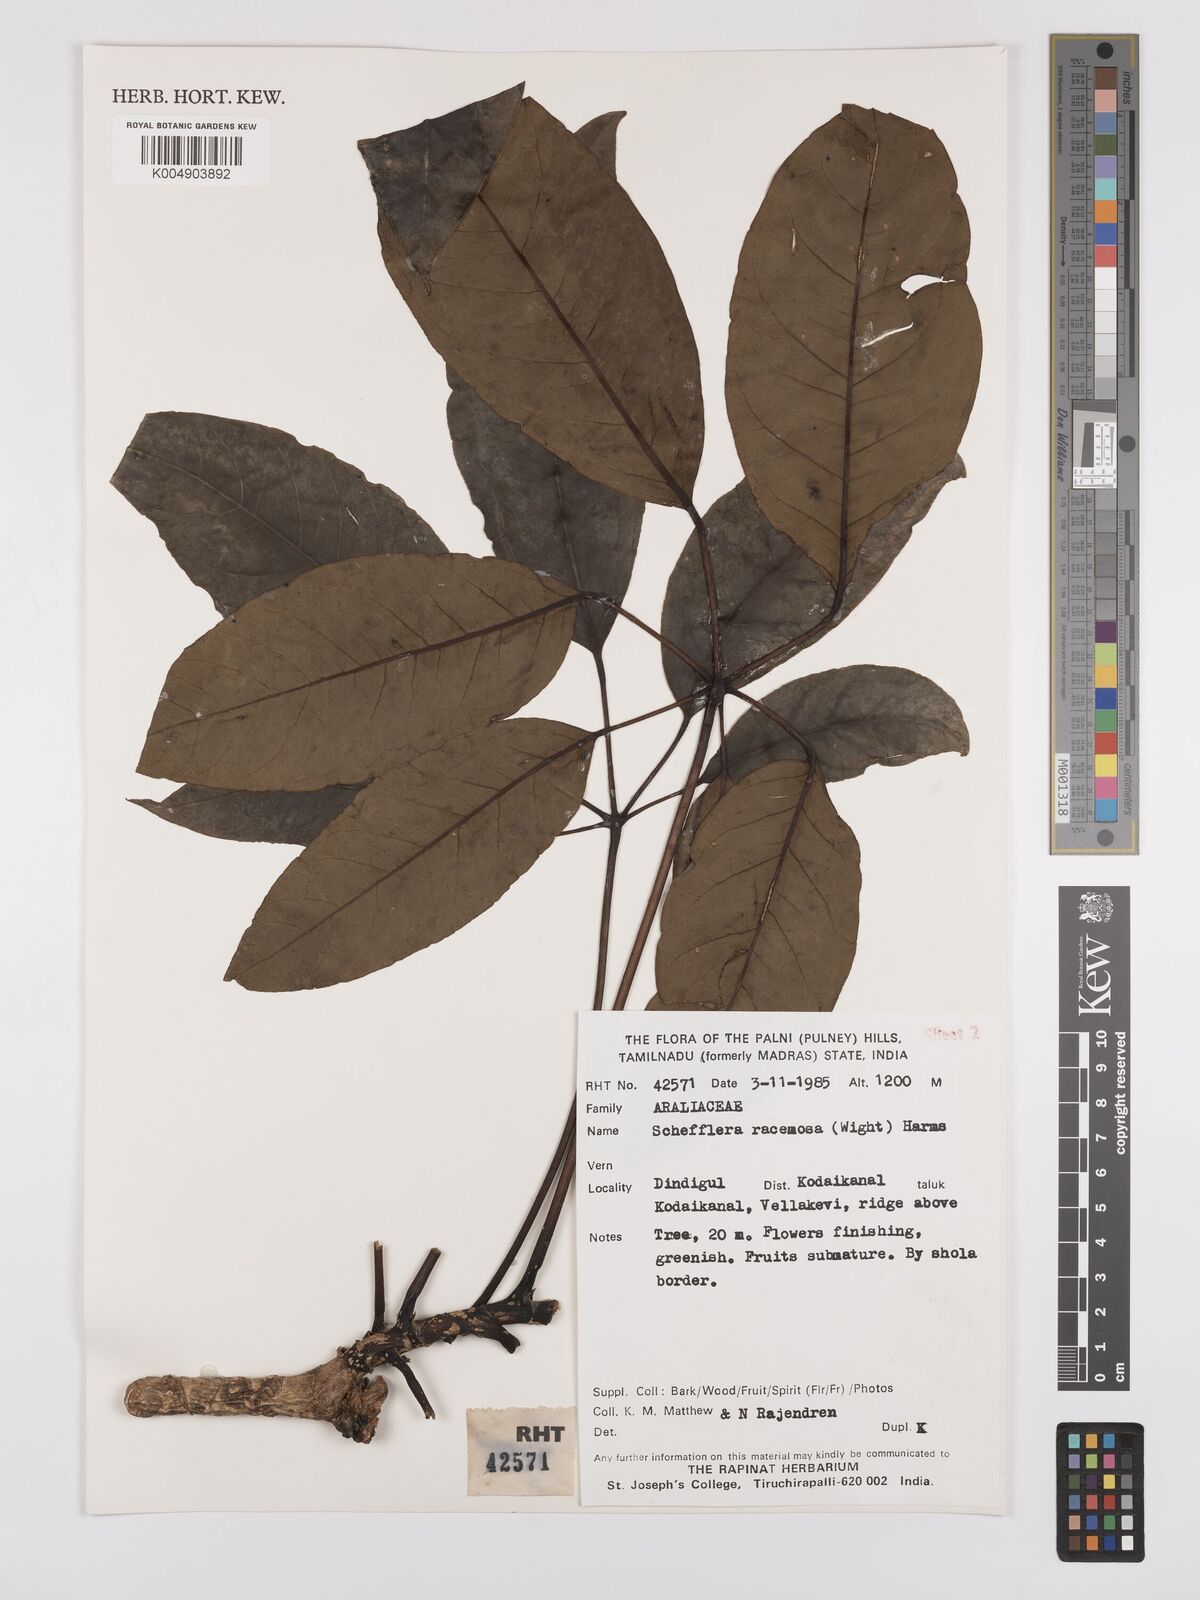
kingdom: Plantae
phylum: Tracheophyta
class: Magnoliopsida
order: Apiales
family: Araliaceae
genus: Heptapleurum
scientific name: Heptapleurum racemosum
